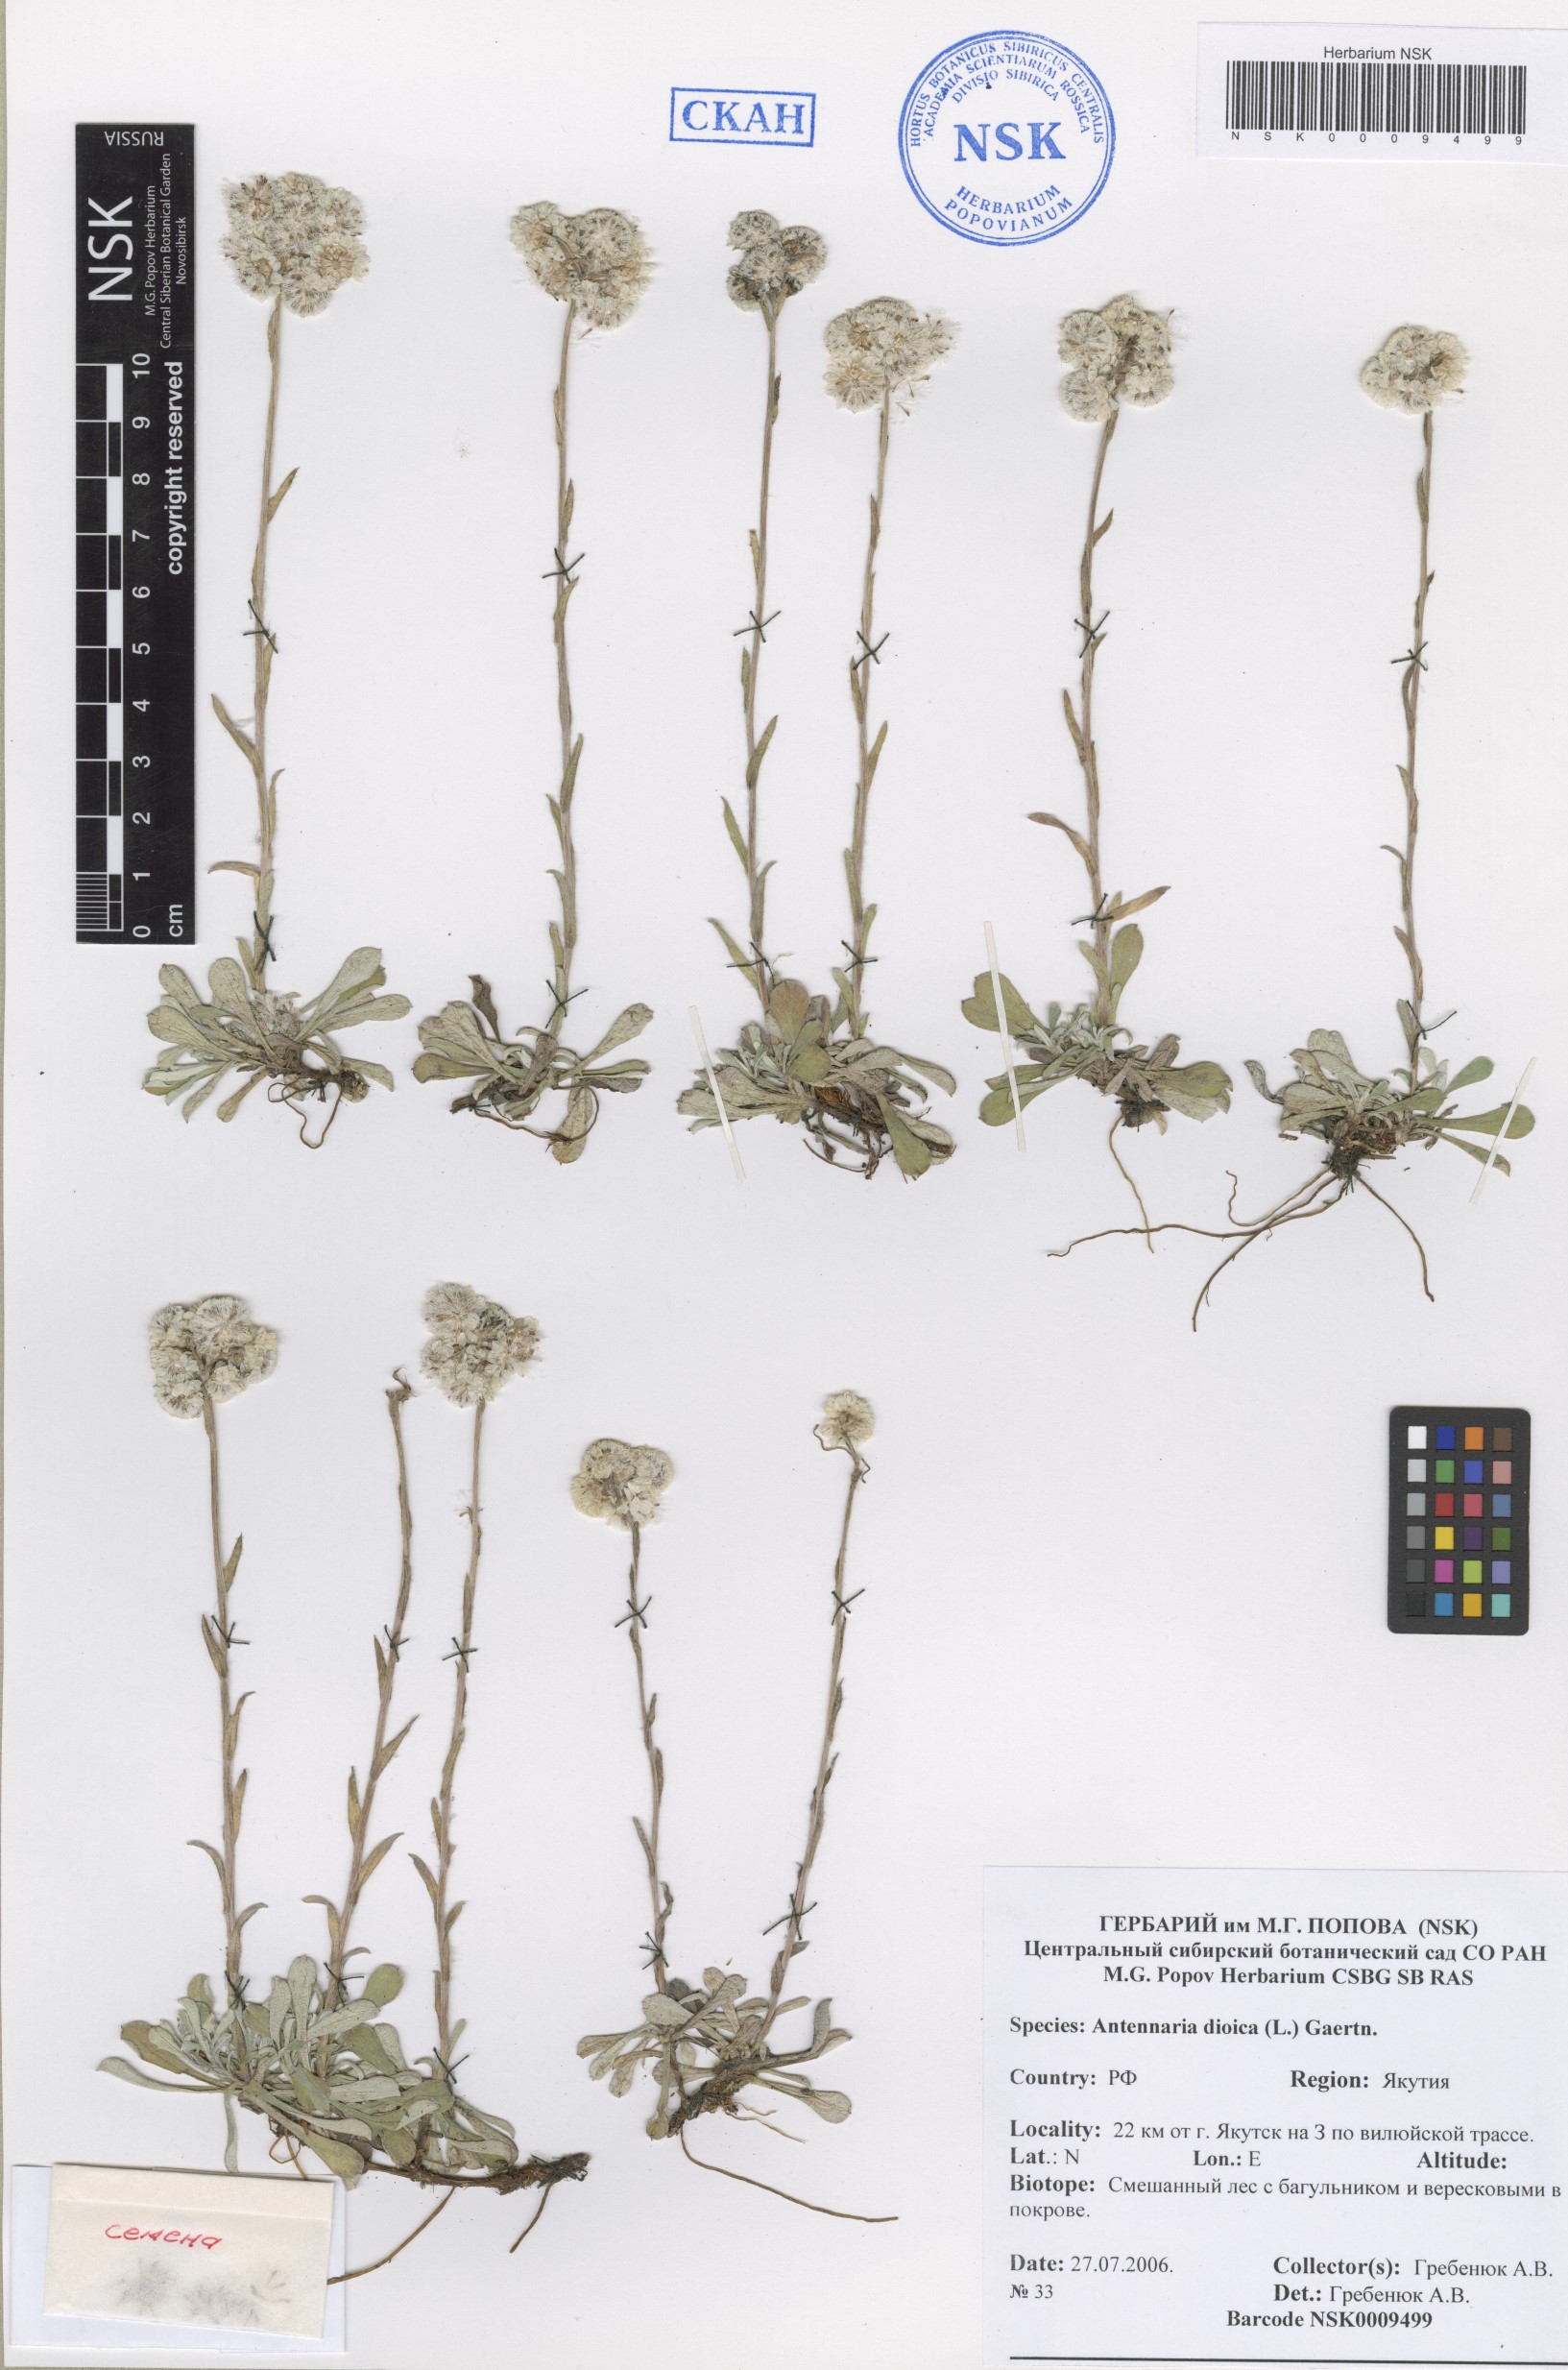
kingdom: Plantae
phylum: Tracheophyta
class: Magnoliopsida
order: Asterales
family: Asteraceae
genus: Antennaria
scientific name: Antennaria dioica
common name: Mountain everlasting
